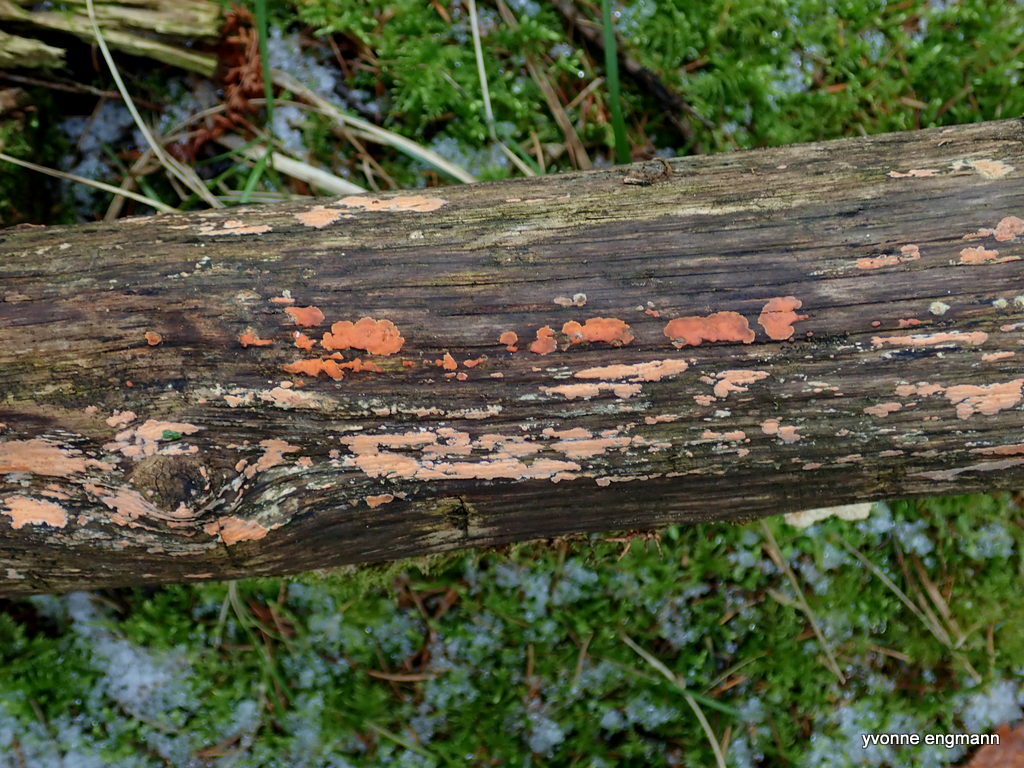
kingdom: Fungi
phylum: Basidiomycota
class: Agaricomycetes
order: Russulales
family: Peniophoraceae
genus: Peniophora
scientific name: Peniophora incarnata
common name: laksefarvet voksskind
